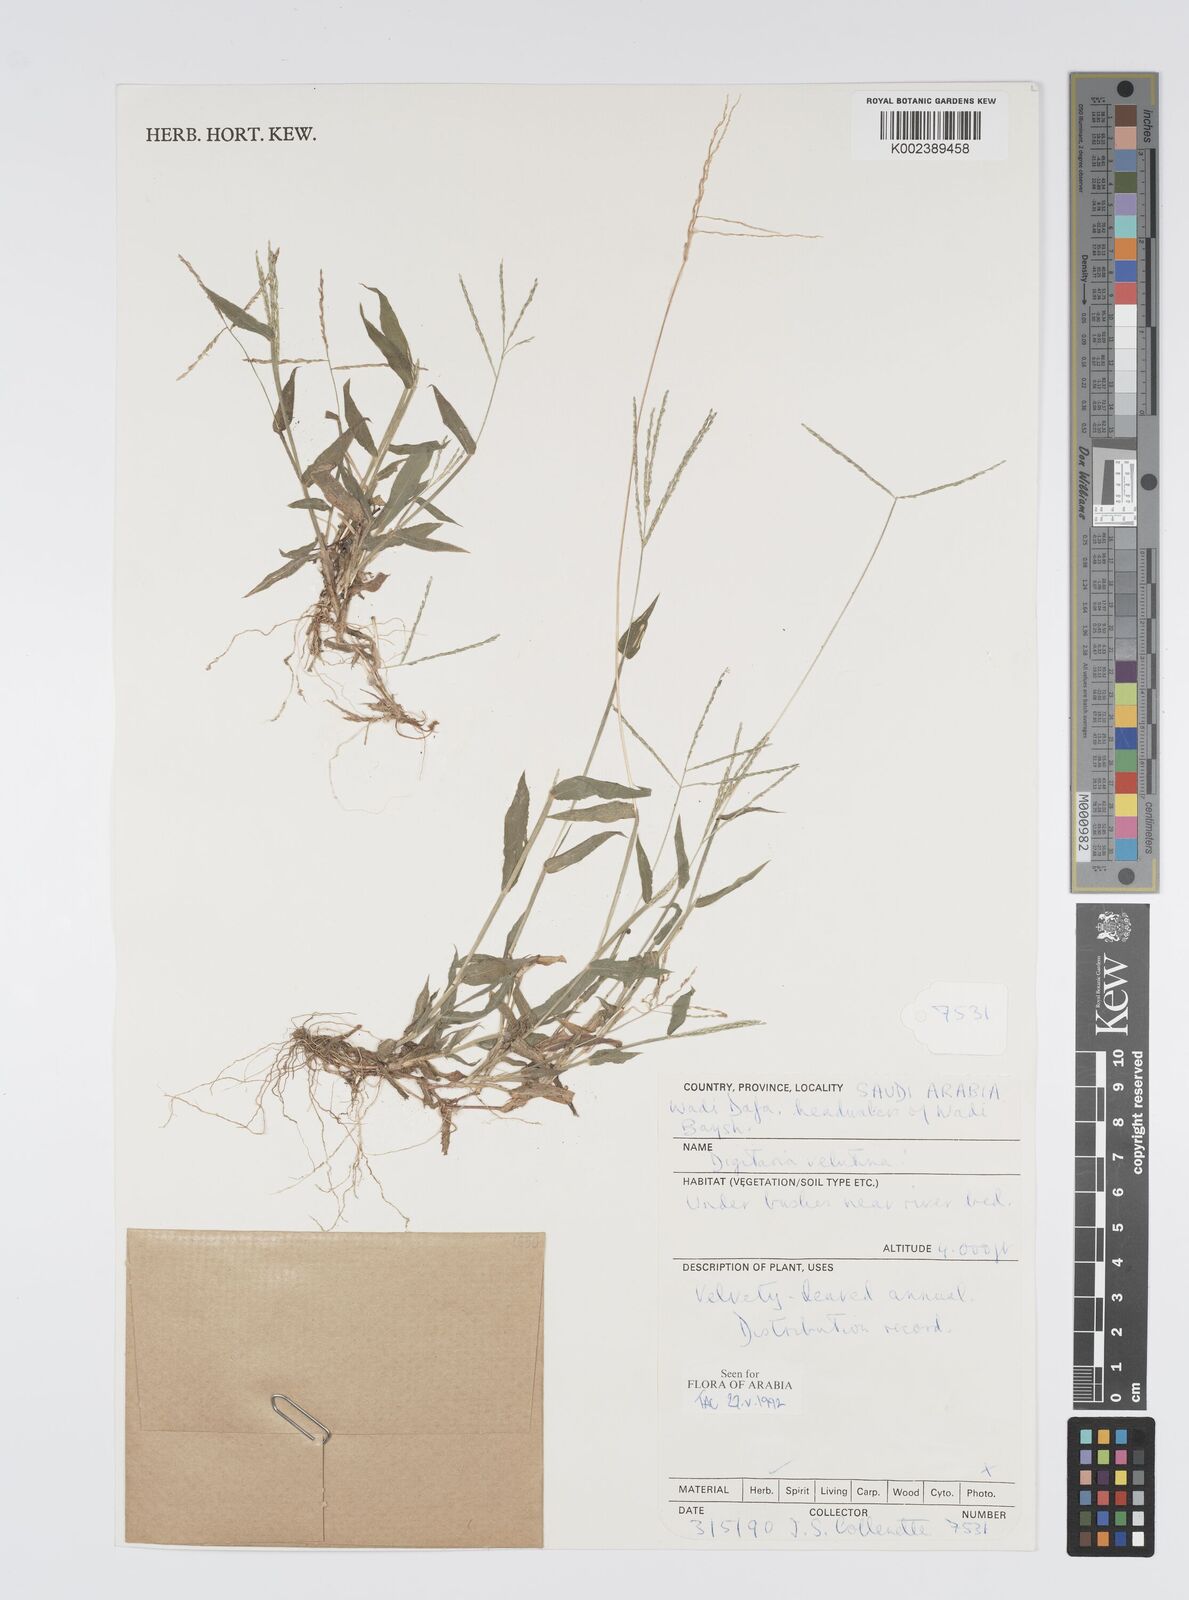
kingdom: Plantae
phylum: Tracheophyta
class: Liliopsida
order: Poales
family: Poaceae
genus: Digitaria
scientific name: Digitaria spec
